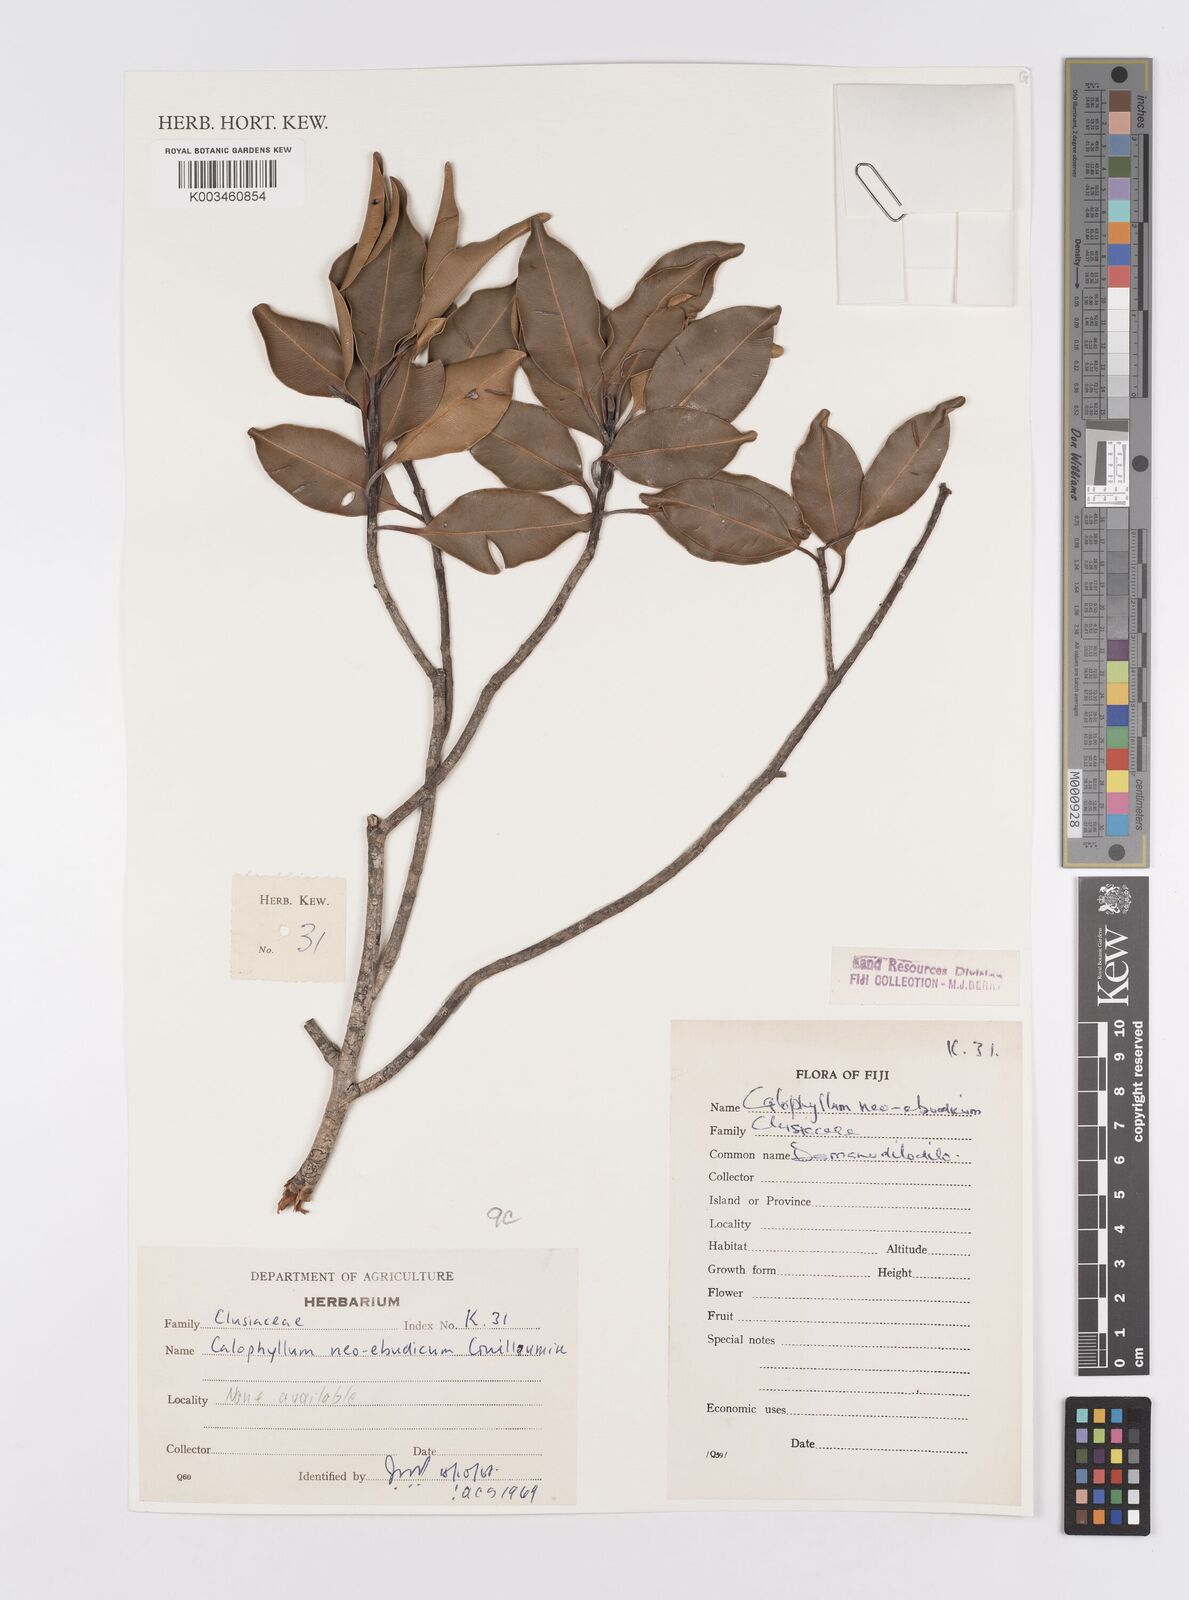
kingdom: Plantae
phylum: Tracheophyta
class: Magnoliopsida
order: Malpighiales
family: Calophyllaceae
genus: Calophyllum
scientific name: Calophyllum neoebudicum
